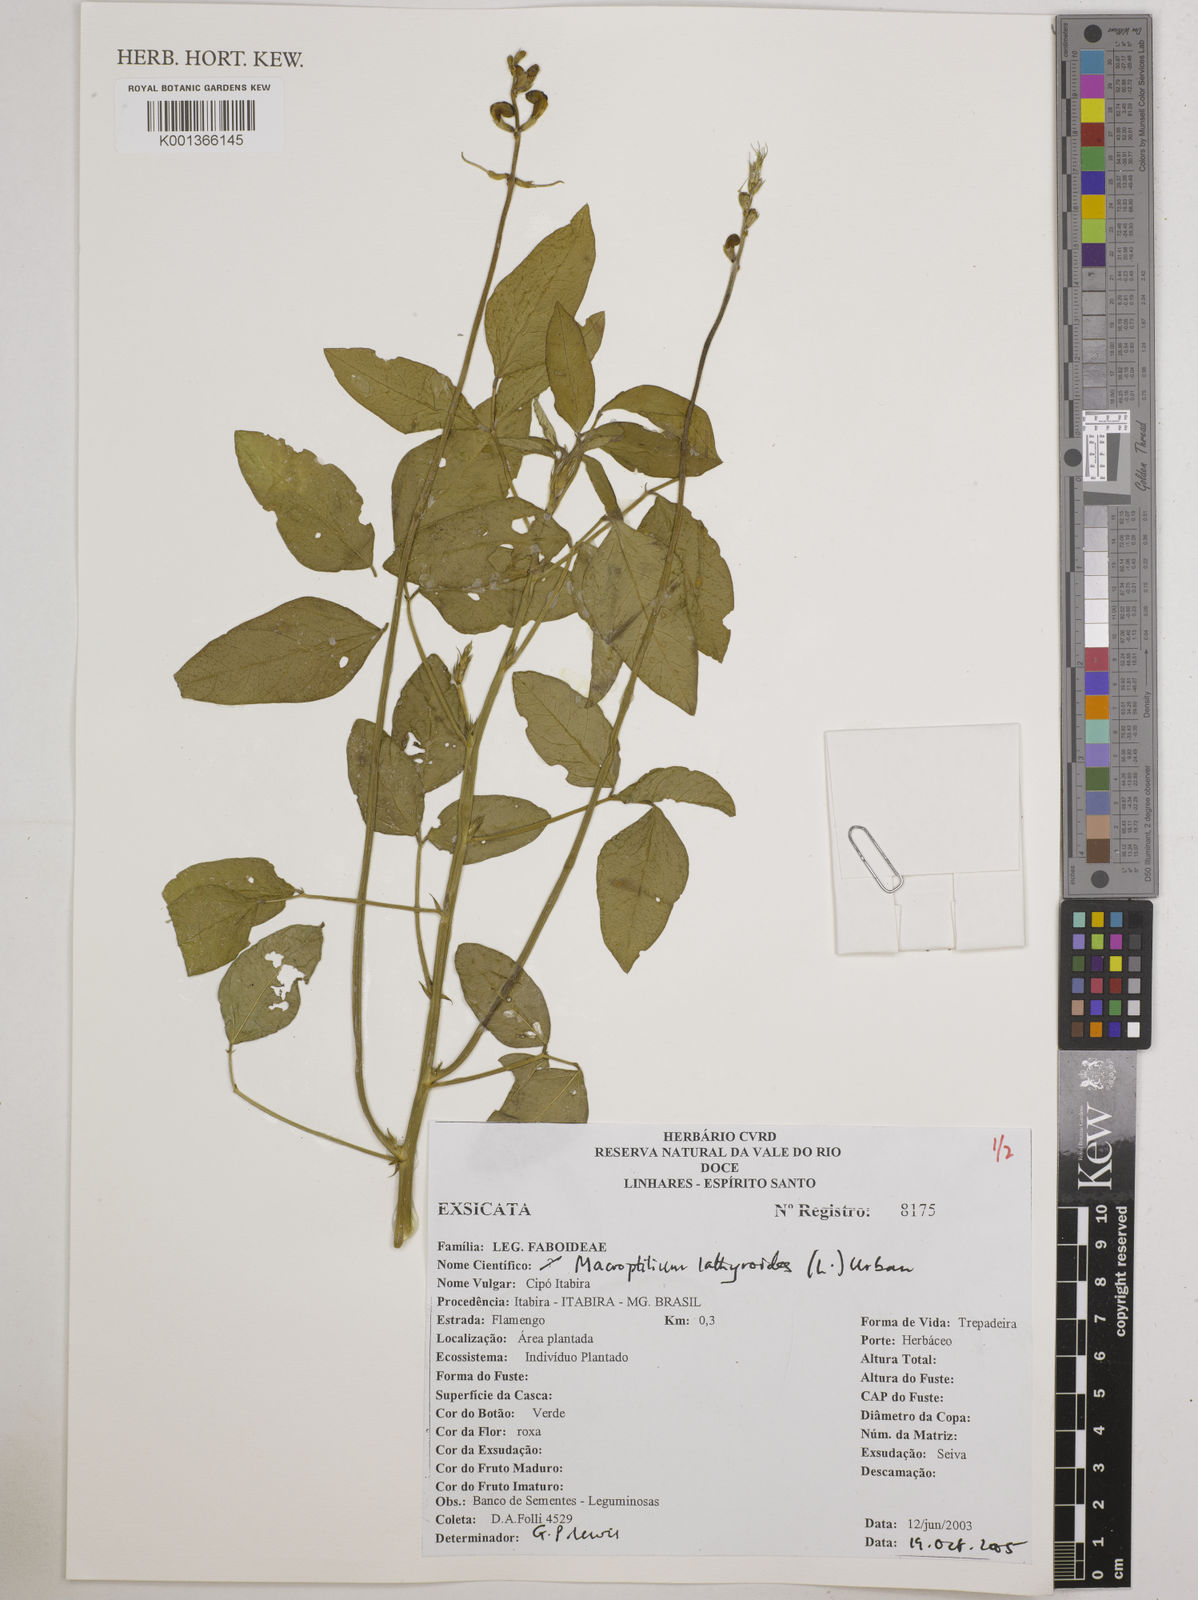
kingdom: Plantae
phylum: Tracheophyta
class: Magnoliopsida
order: Fabales
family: Fabaceae
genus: Macroptilium
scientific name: Macroptilium lathyroides
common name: Wild bushbean
